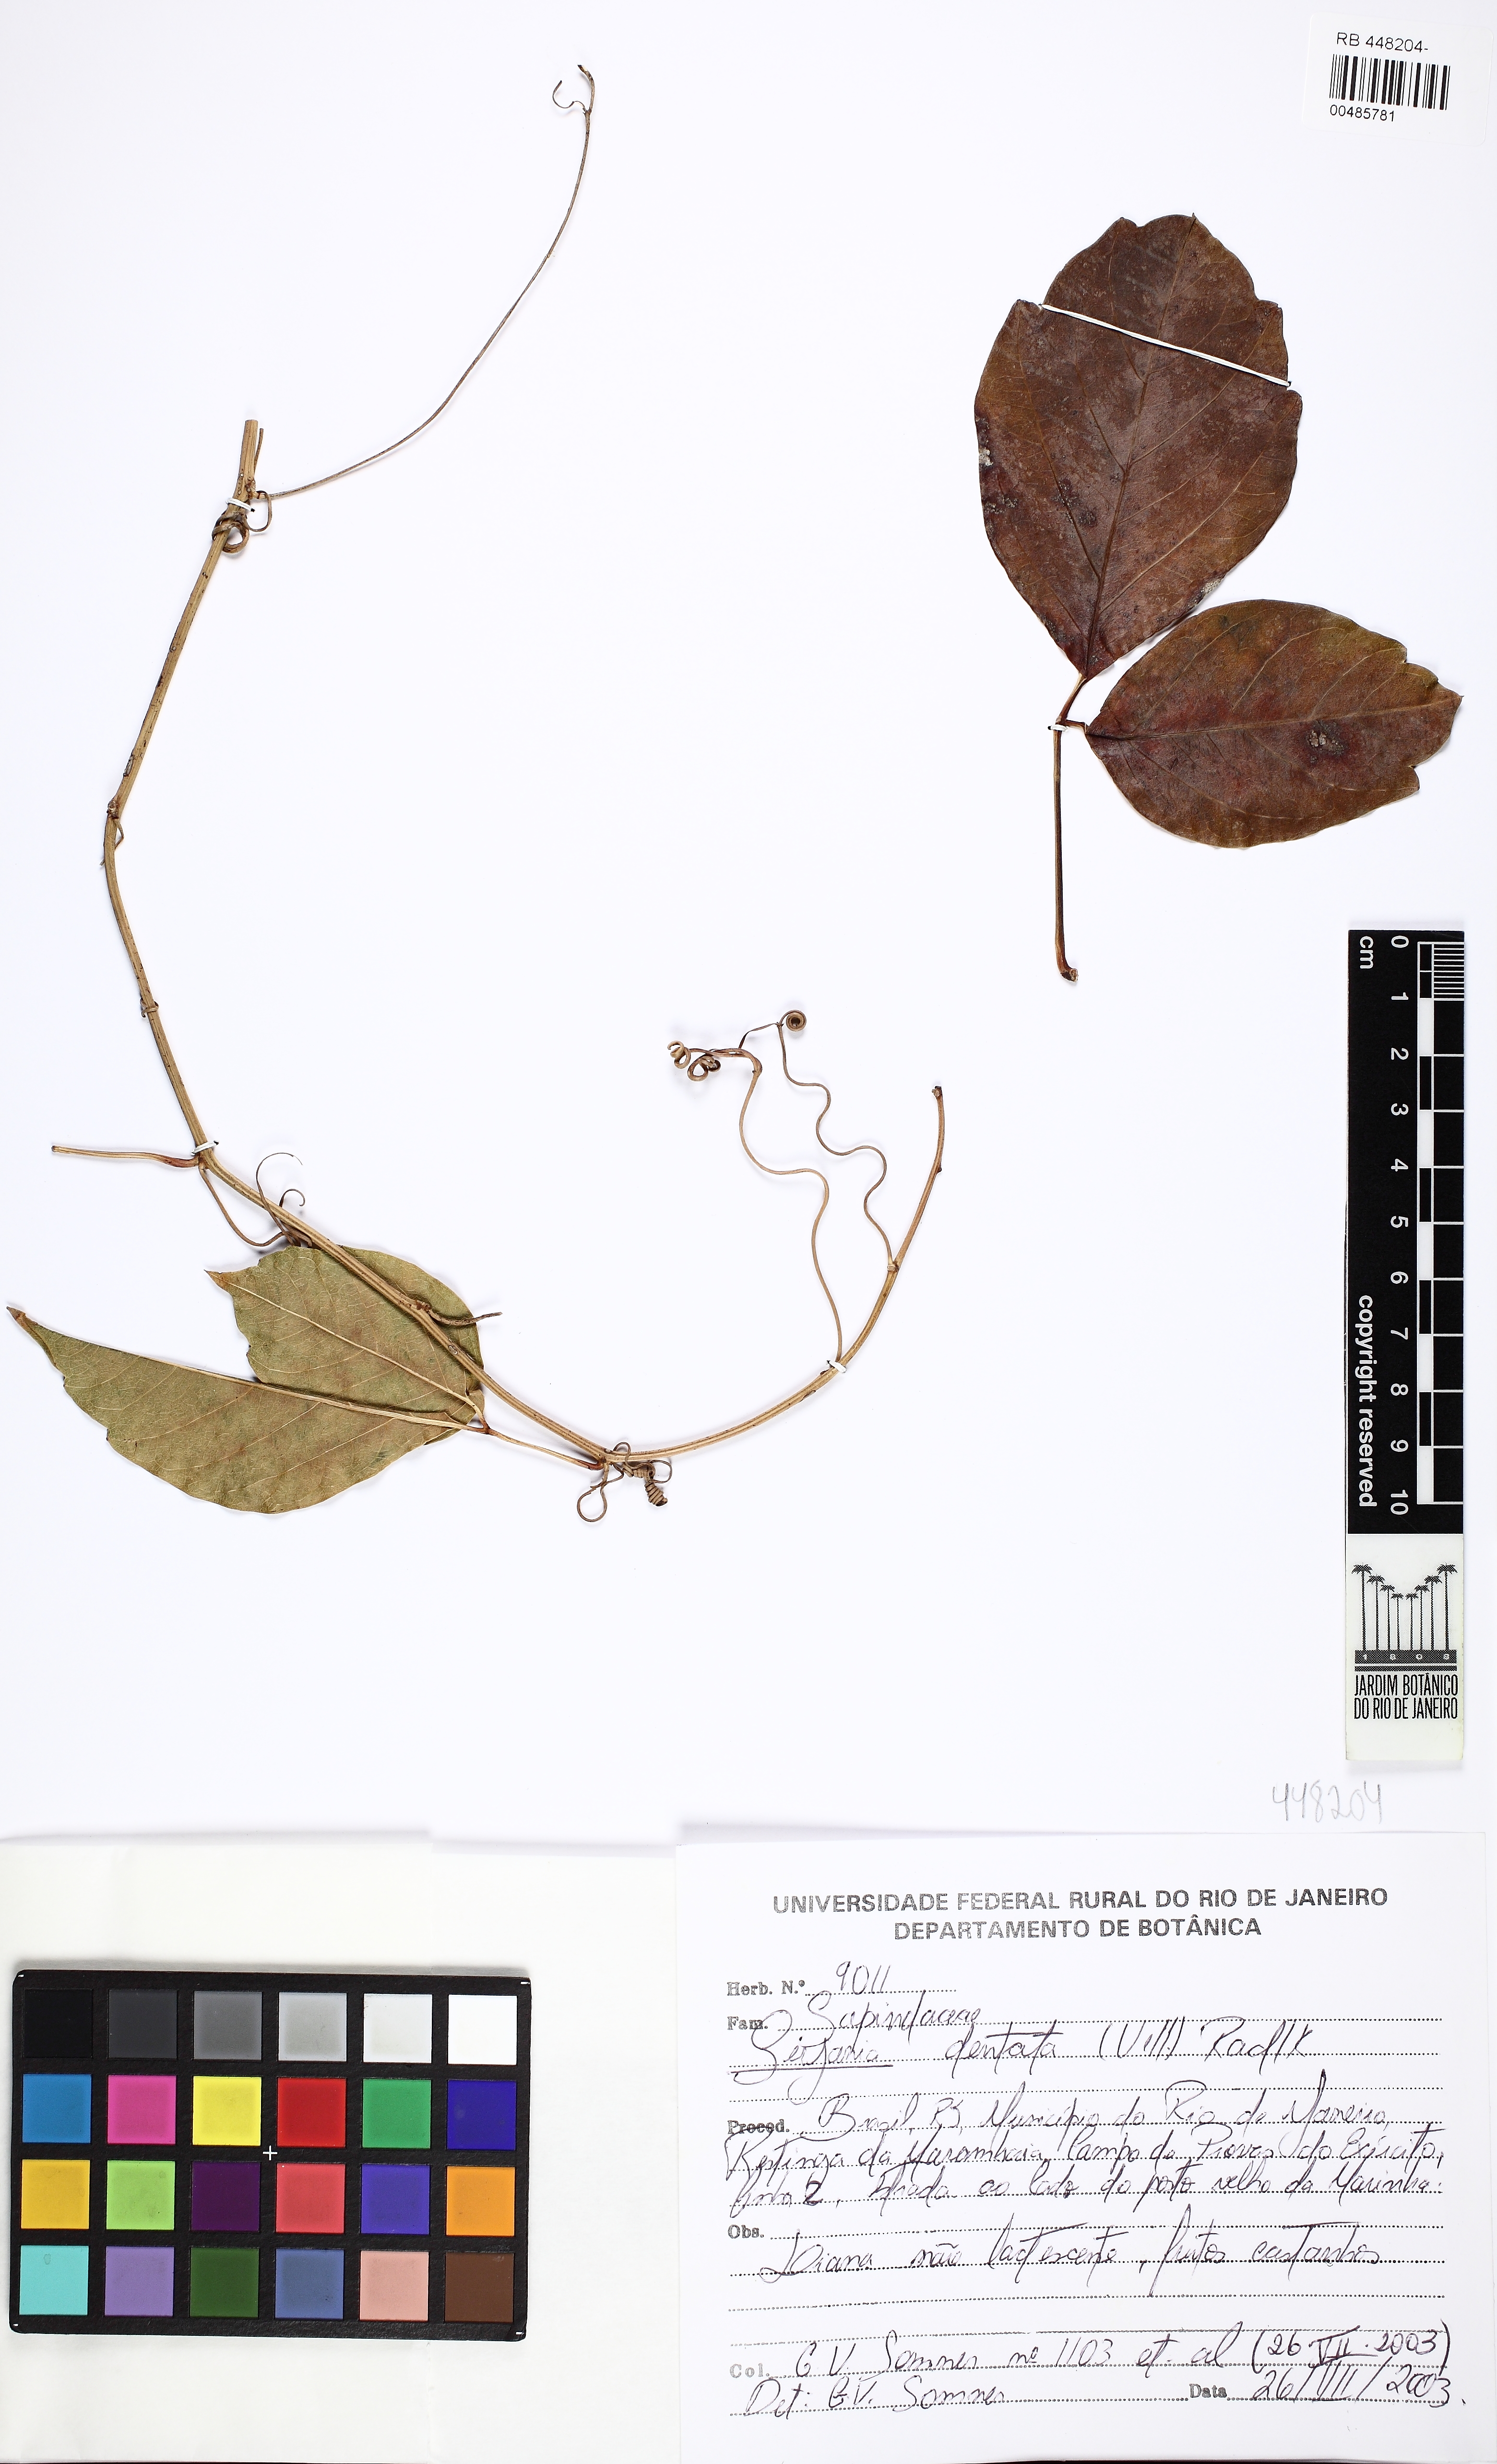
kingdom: Plantae
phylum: Tracheophyta
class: Magnoliopsida
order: Sapindales
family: Sapindaceae
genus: Serjania
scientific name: Serjania dentata
